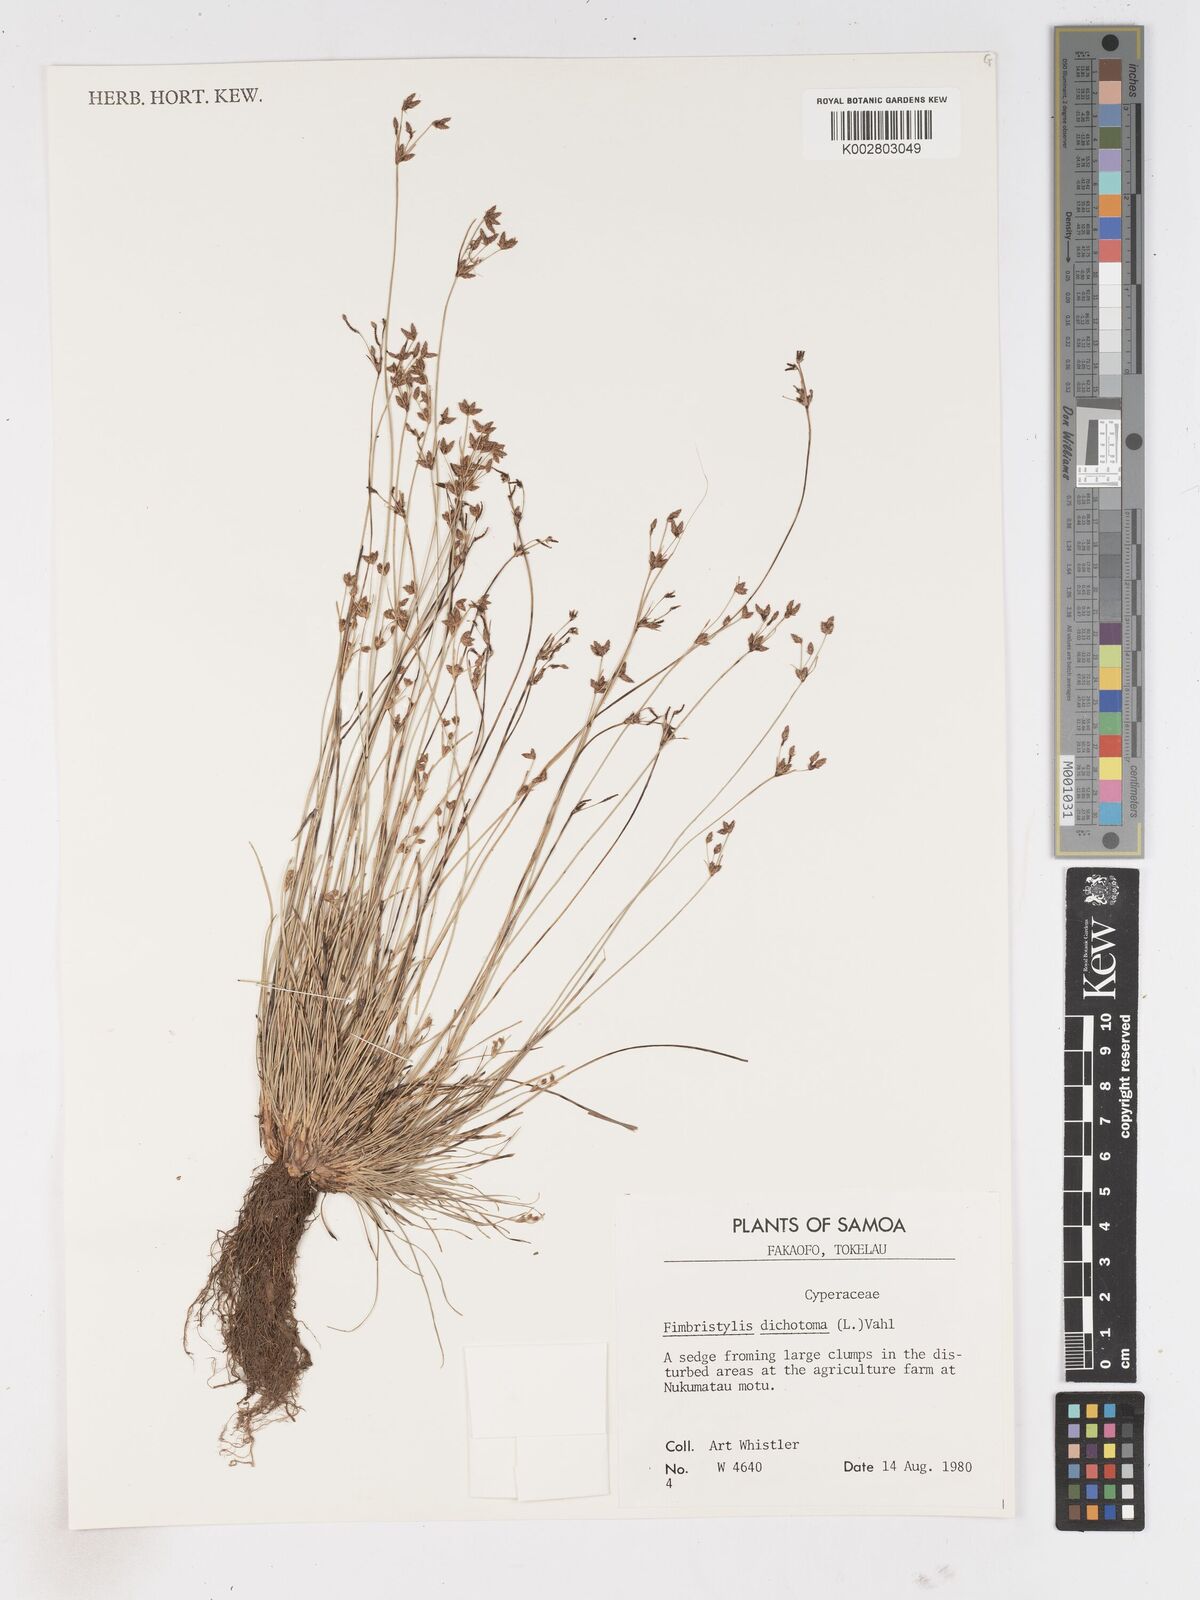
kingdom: Plantae
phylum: Tracheophyta
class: Liliopsida
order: Poales
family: Cyperaceae
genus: Fimbristylis
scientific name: Fimbristylis dichotoma
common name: Forked fimbry
